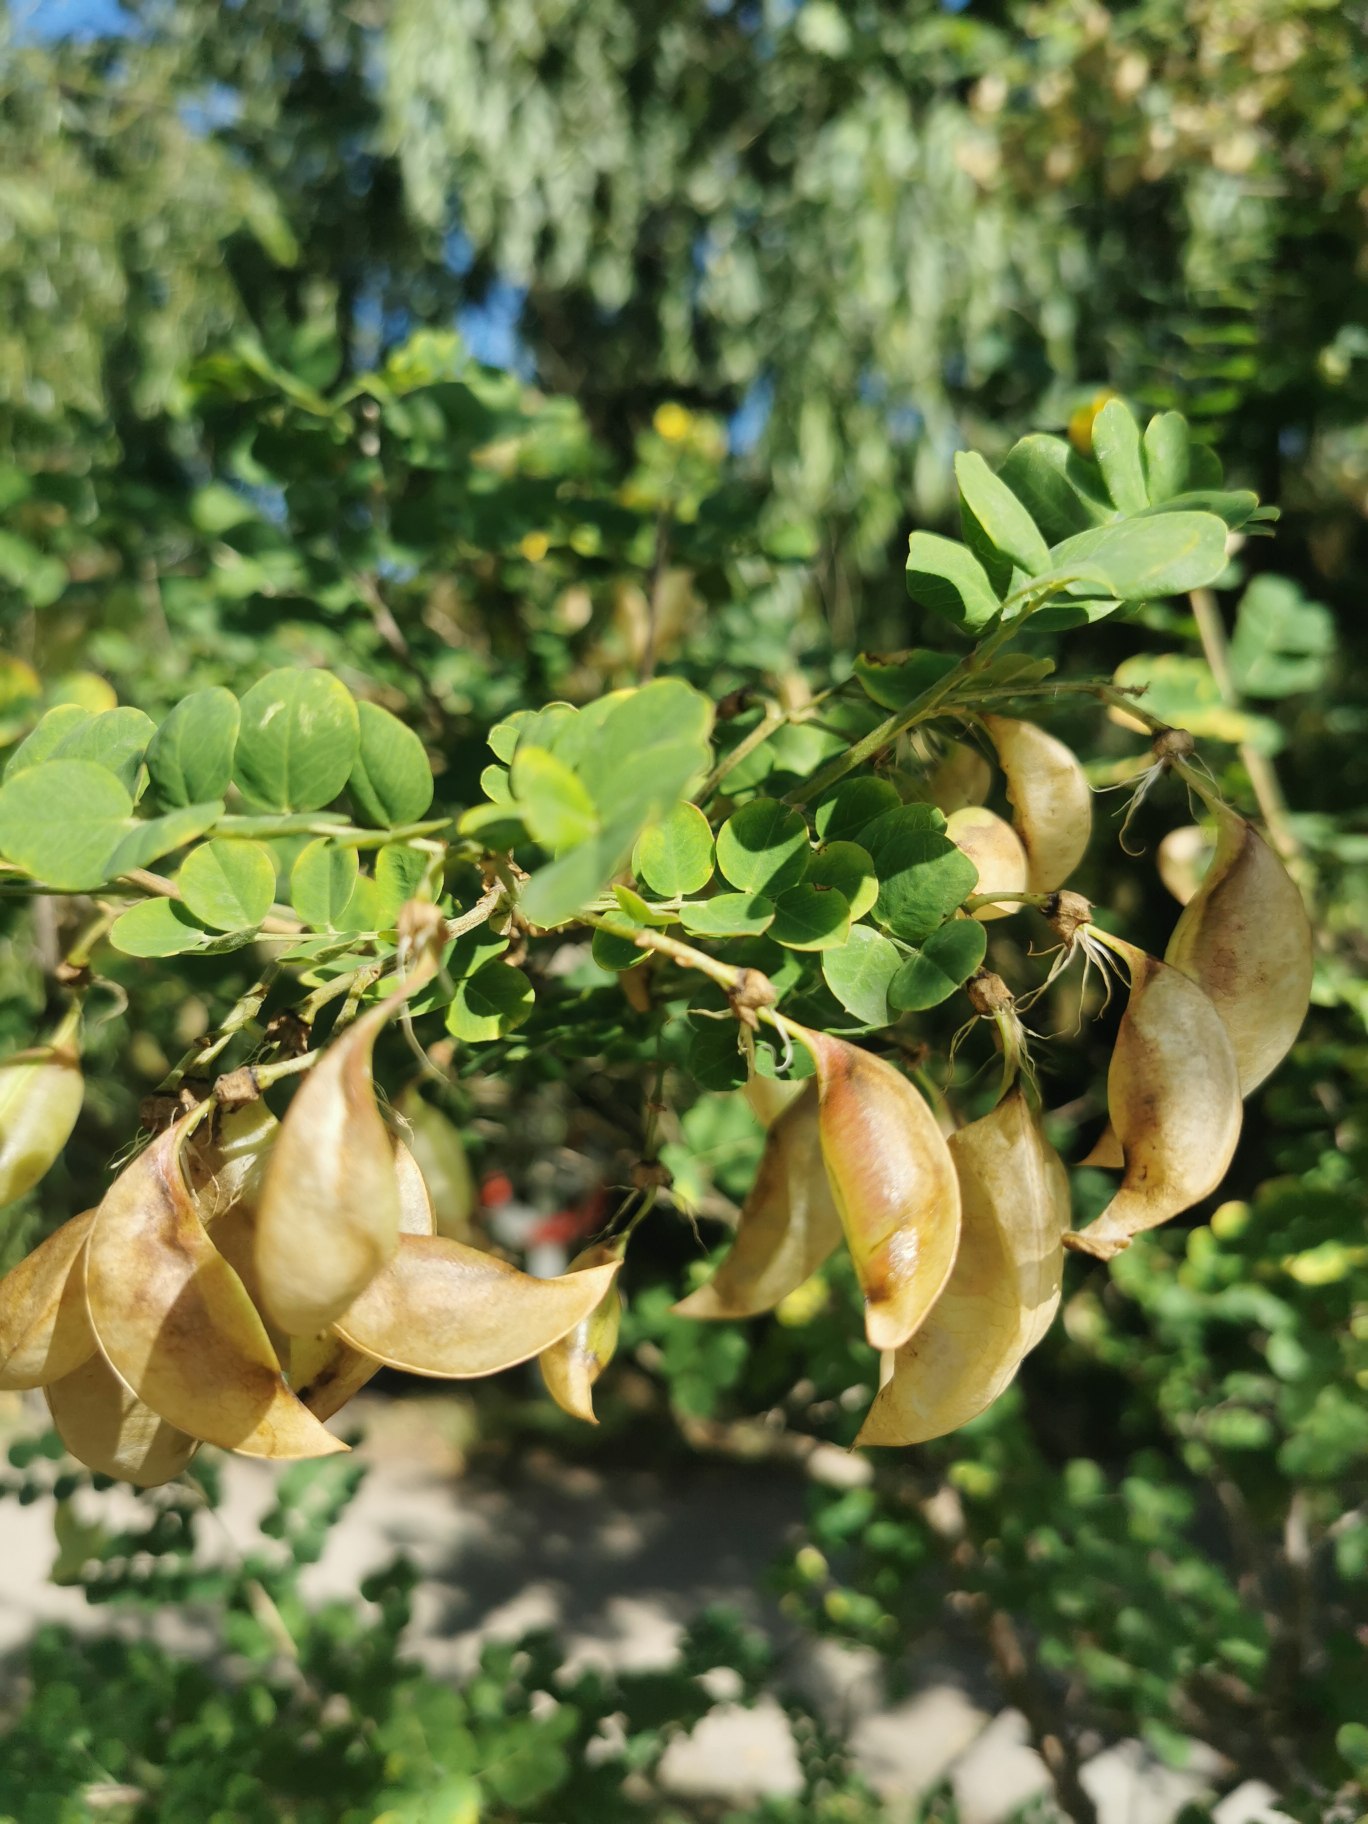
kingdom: Plantae
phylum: Tracheophyta
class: Magnoliopsida
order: Fabales
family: Fabaceae
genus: Colutea
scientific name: Colutea orientalis
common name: Tykbladet blærebælg
